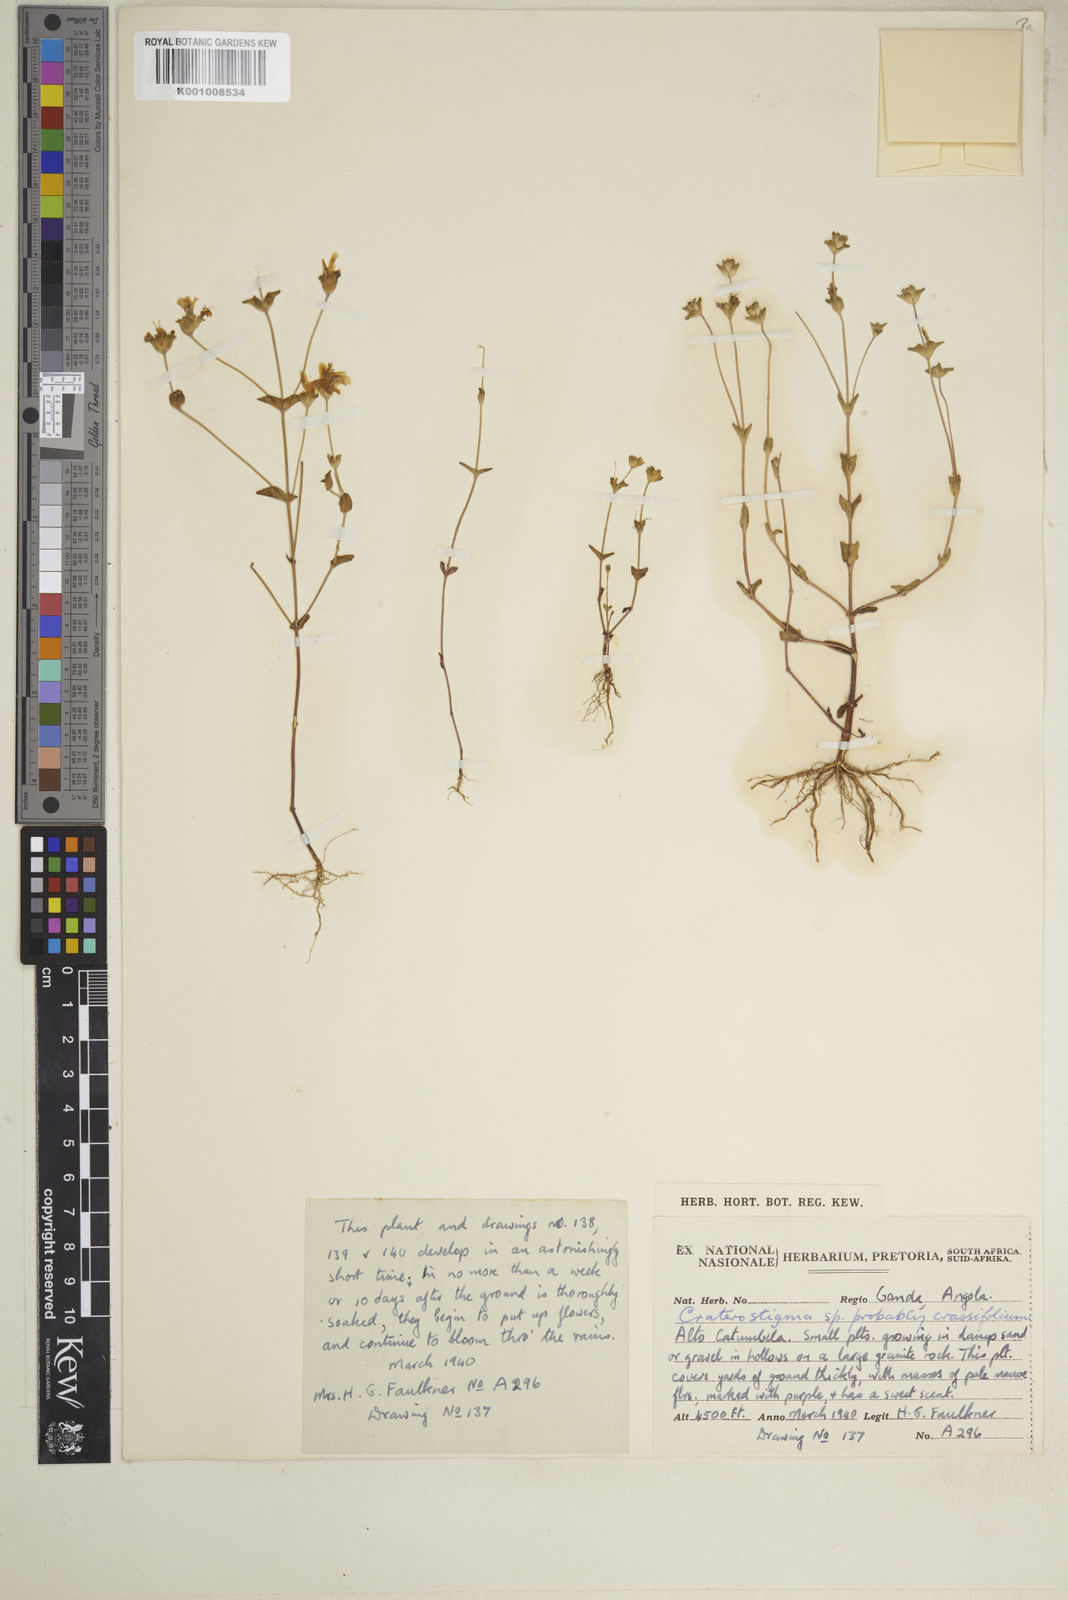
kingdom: Plantae
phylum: Tracheophyta
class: Magnoliopsida
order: Lamiales
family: Linderniaceae
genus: Lindernia
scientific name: Lindernia crassifolia
